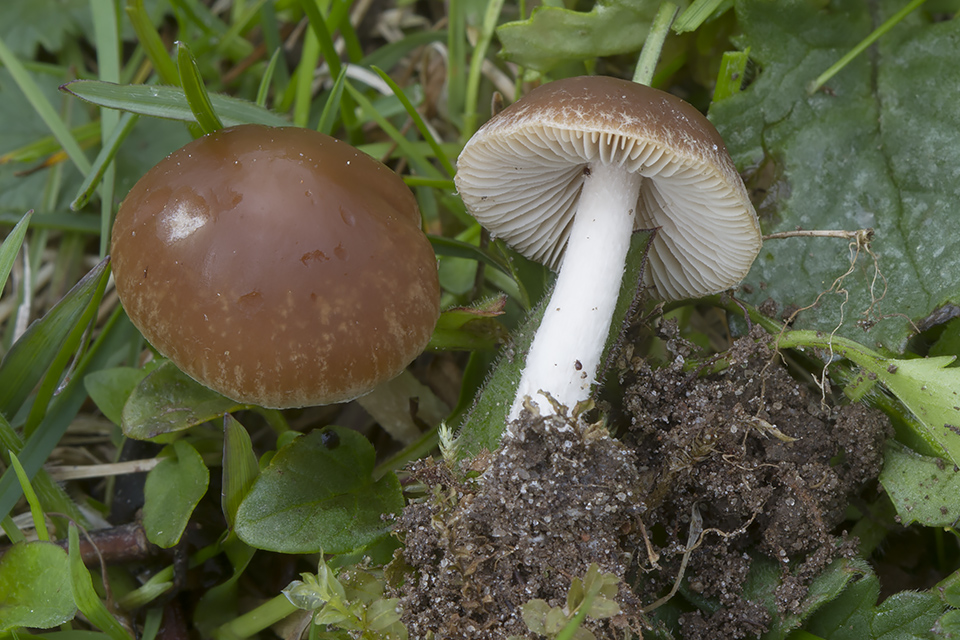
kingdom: Fungi
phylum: Basidiomycota
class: Agaricomycetes
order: Agaricales
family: Psathyrellaceae
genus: Psathyrella
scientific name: Psathyrella clivensis
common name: eng-mørkhat
